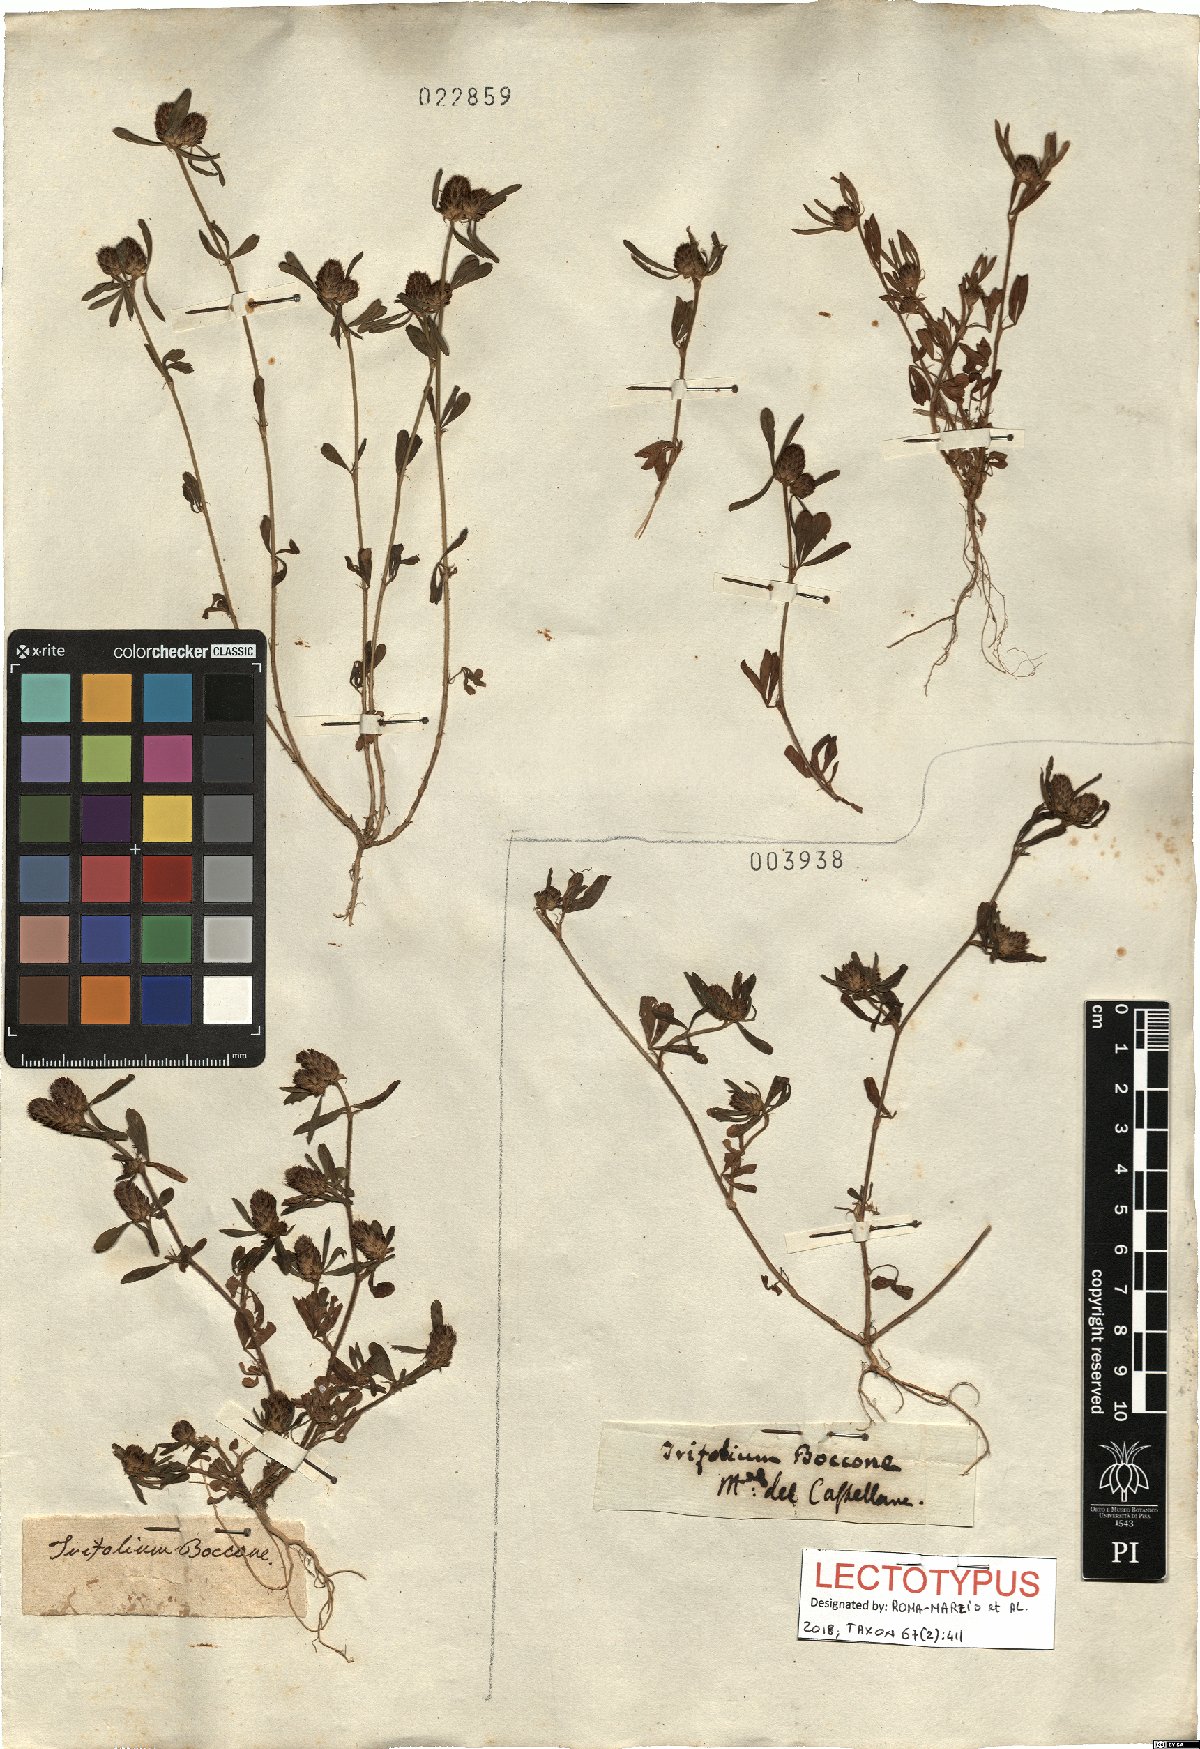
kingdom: Plantae
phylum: Tracheophyta
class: Magnoliopsida
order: Fabales
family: Fabaceae
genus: Trifolium
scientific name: Trifolium bocconei
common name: Twin-headed clover
